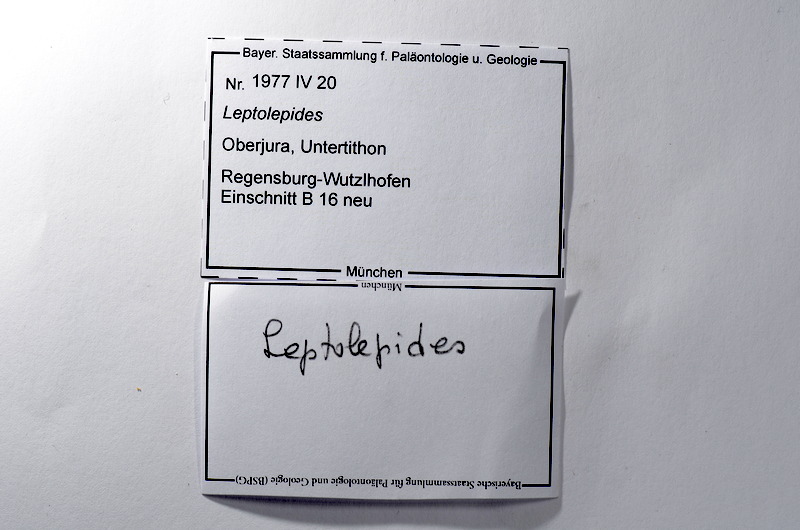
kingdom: Animalia
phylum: Chordata
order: Salmoniformes
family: Orthogonikleithridae
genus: Leptolepides
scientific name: Leptolepides
